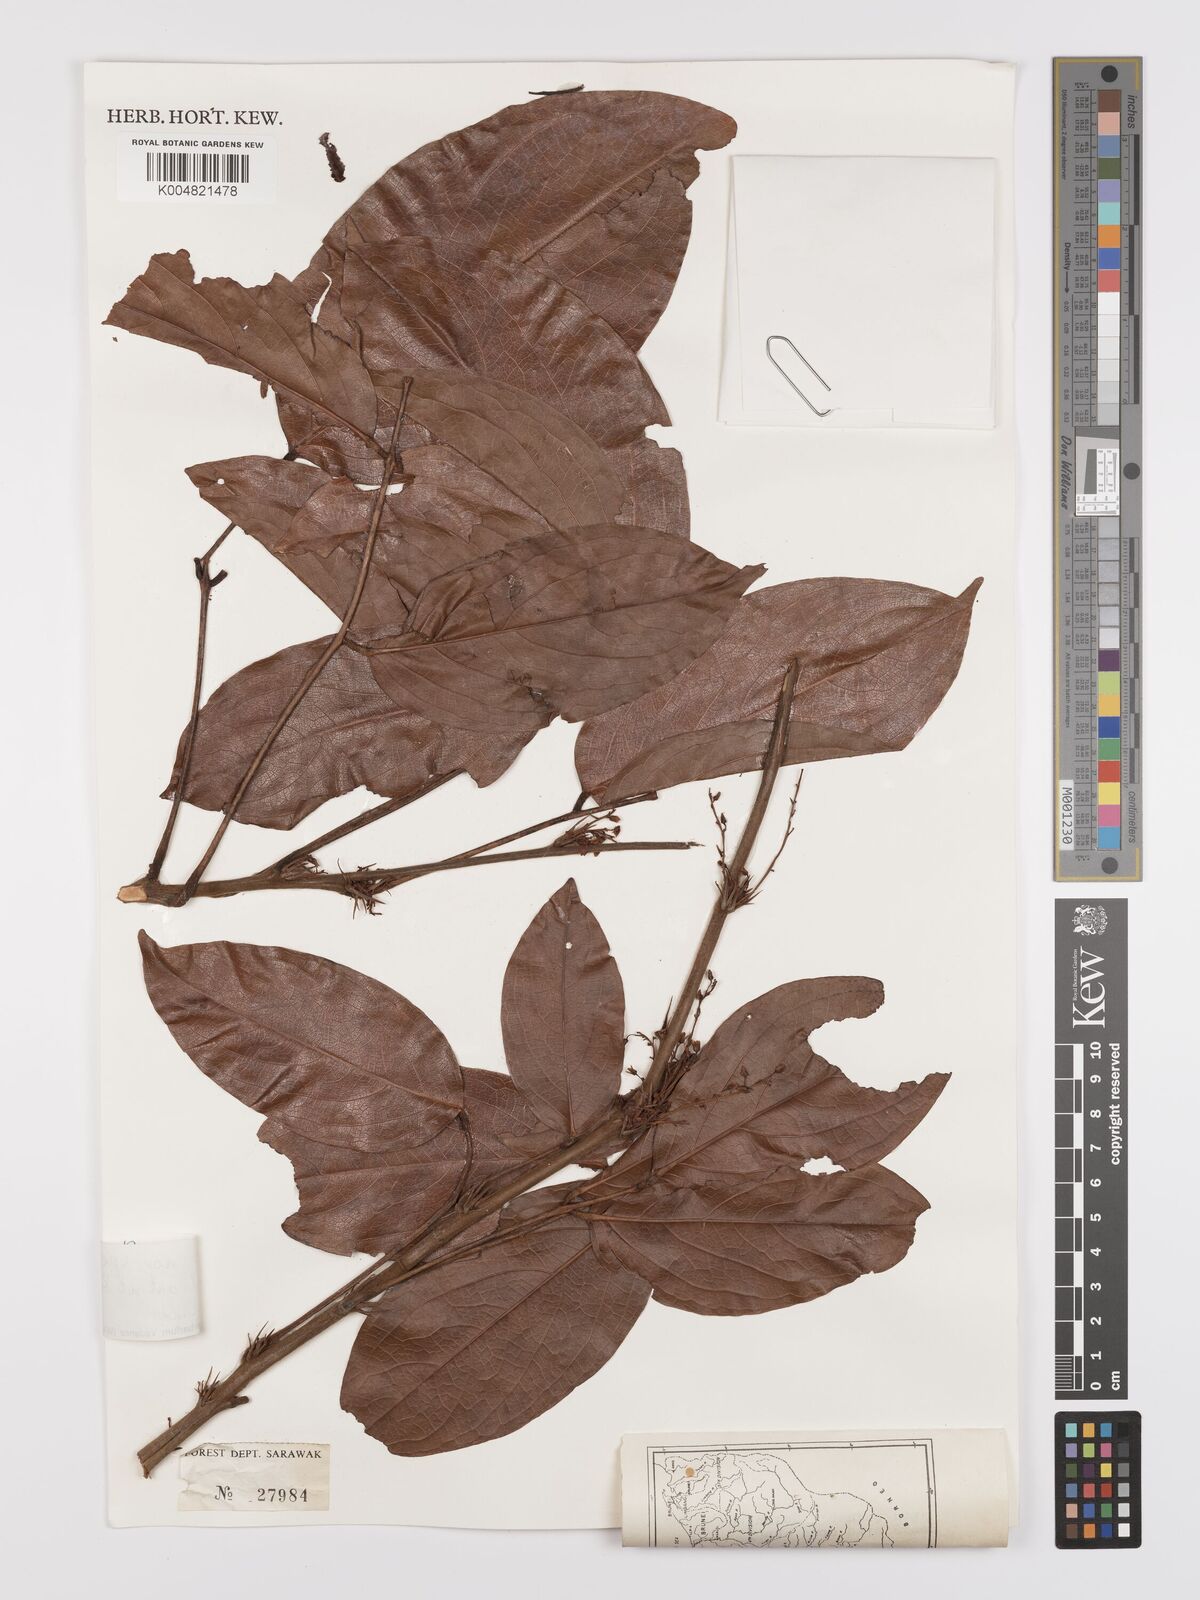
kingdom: Plantae
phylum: Tracheophyta
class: Magnoliopsida
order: Oxalidales
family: Connaraceae
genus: Rourea
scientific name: Rourea
